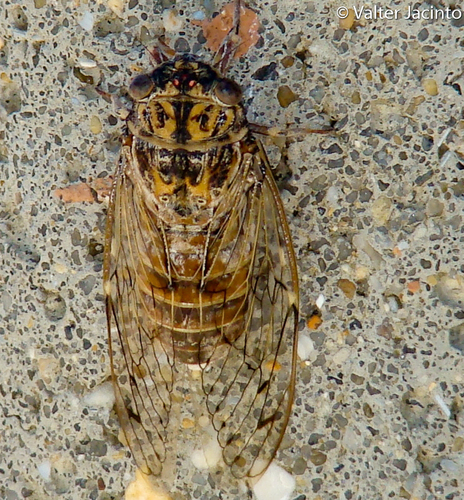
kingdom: Animalia
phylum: Arthropoda
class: Insecta
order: Hemiptera
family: Cicadidae
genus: Cicada
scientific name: Cicada barbara
